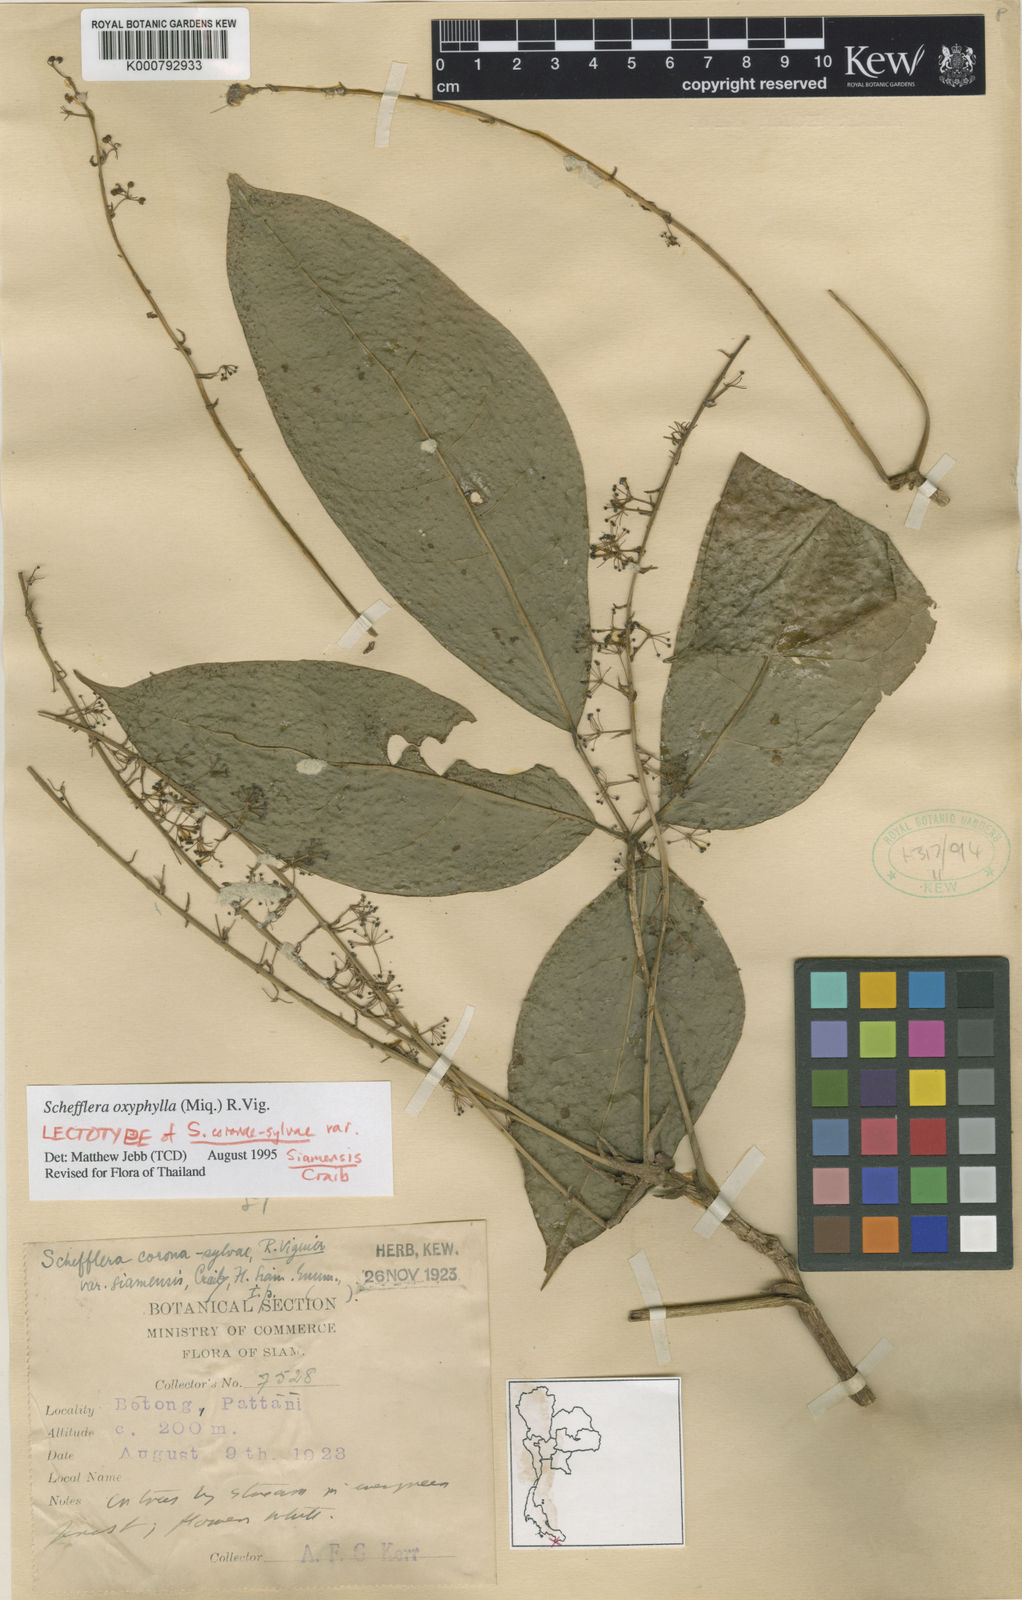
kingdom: Plantae
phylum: Tracheophyta
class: Magnoliopsida
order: Apiales
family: Araliaceae
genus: Heptapleurum
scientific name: Heptapleurum oxyphyllum
